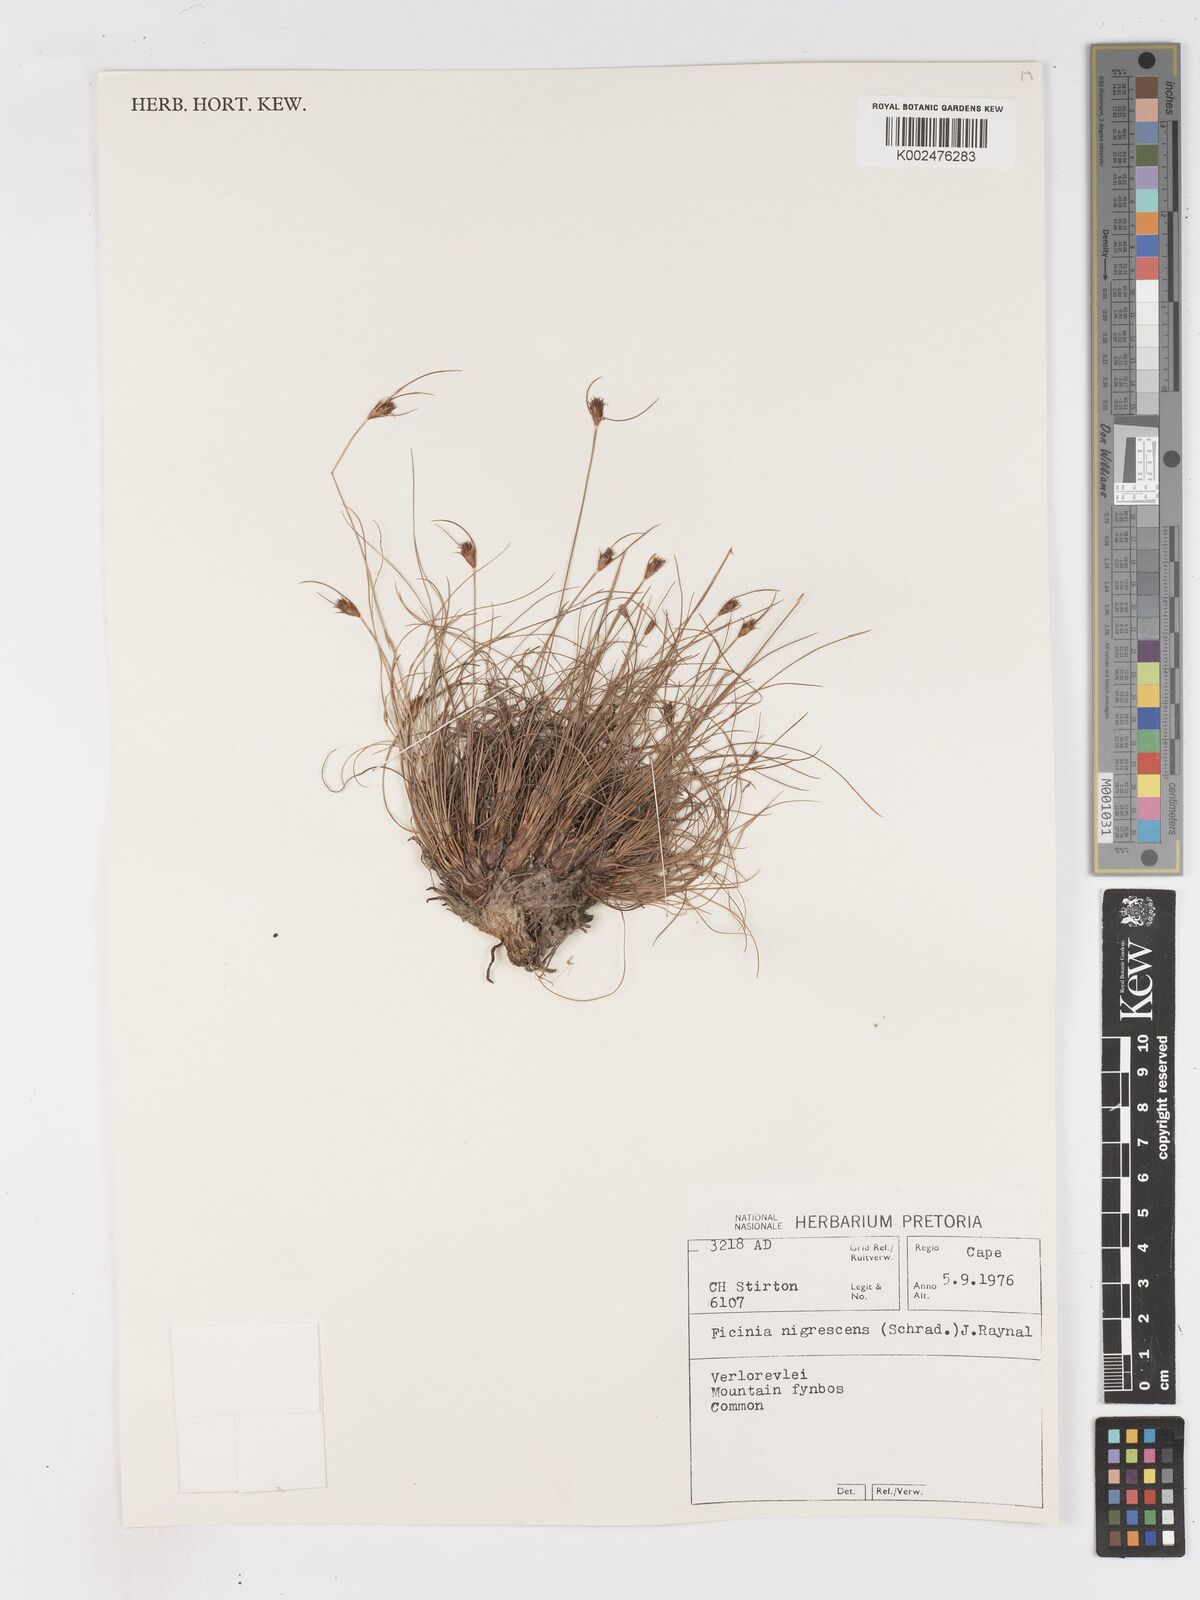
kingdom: Plantae
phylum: Tracheophyta
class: Liliopsida
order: Poales
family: Cyperaceae
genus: Ficinia
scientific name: Ficinia nigrescens
